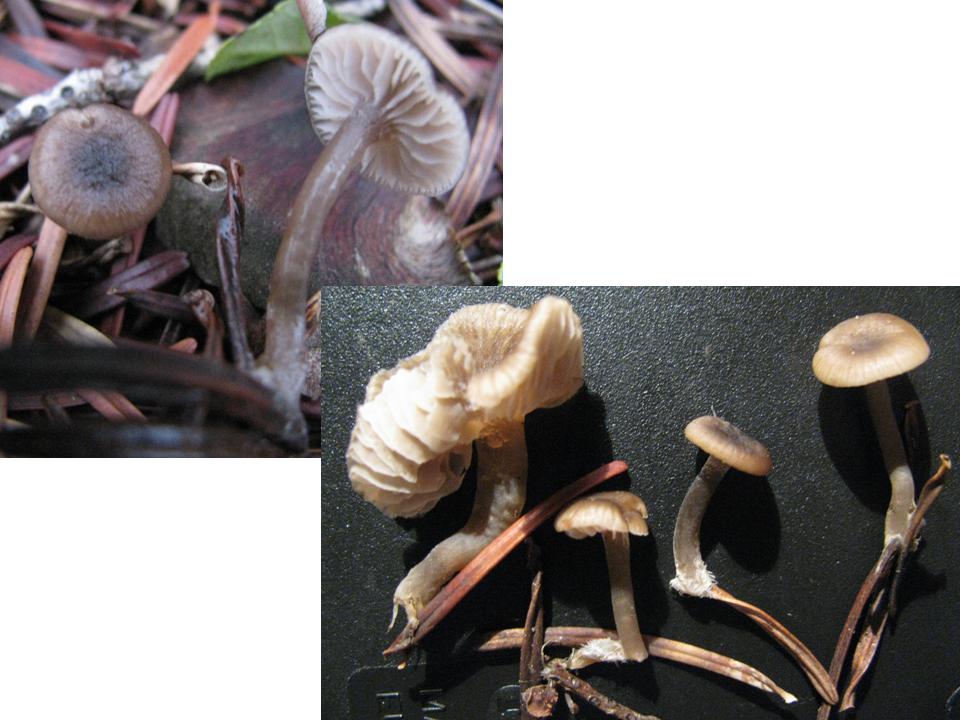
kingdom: Fungi
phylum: Basidiomycota
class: Agaricomycetes
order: Agaricales
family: Tricholomataceae
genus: Gamundia
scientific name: Gamundia striatula
